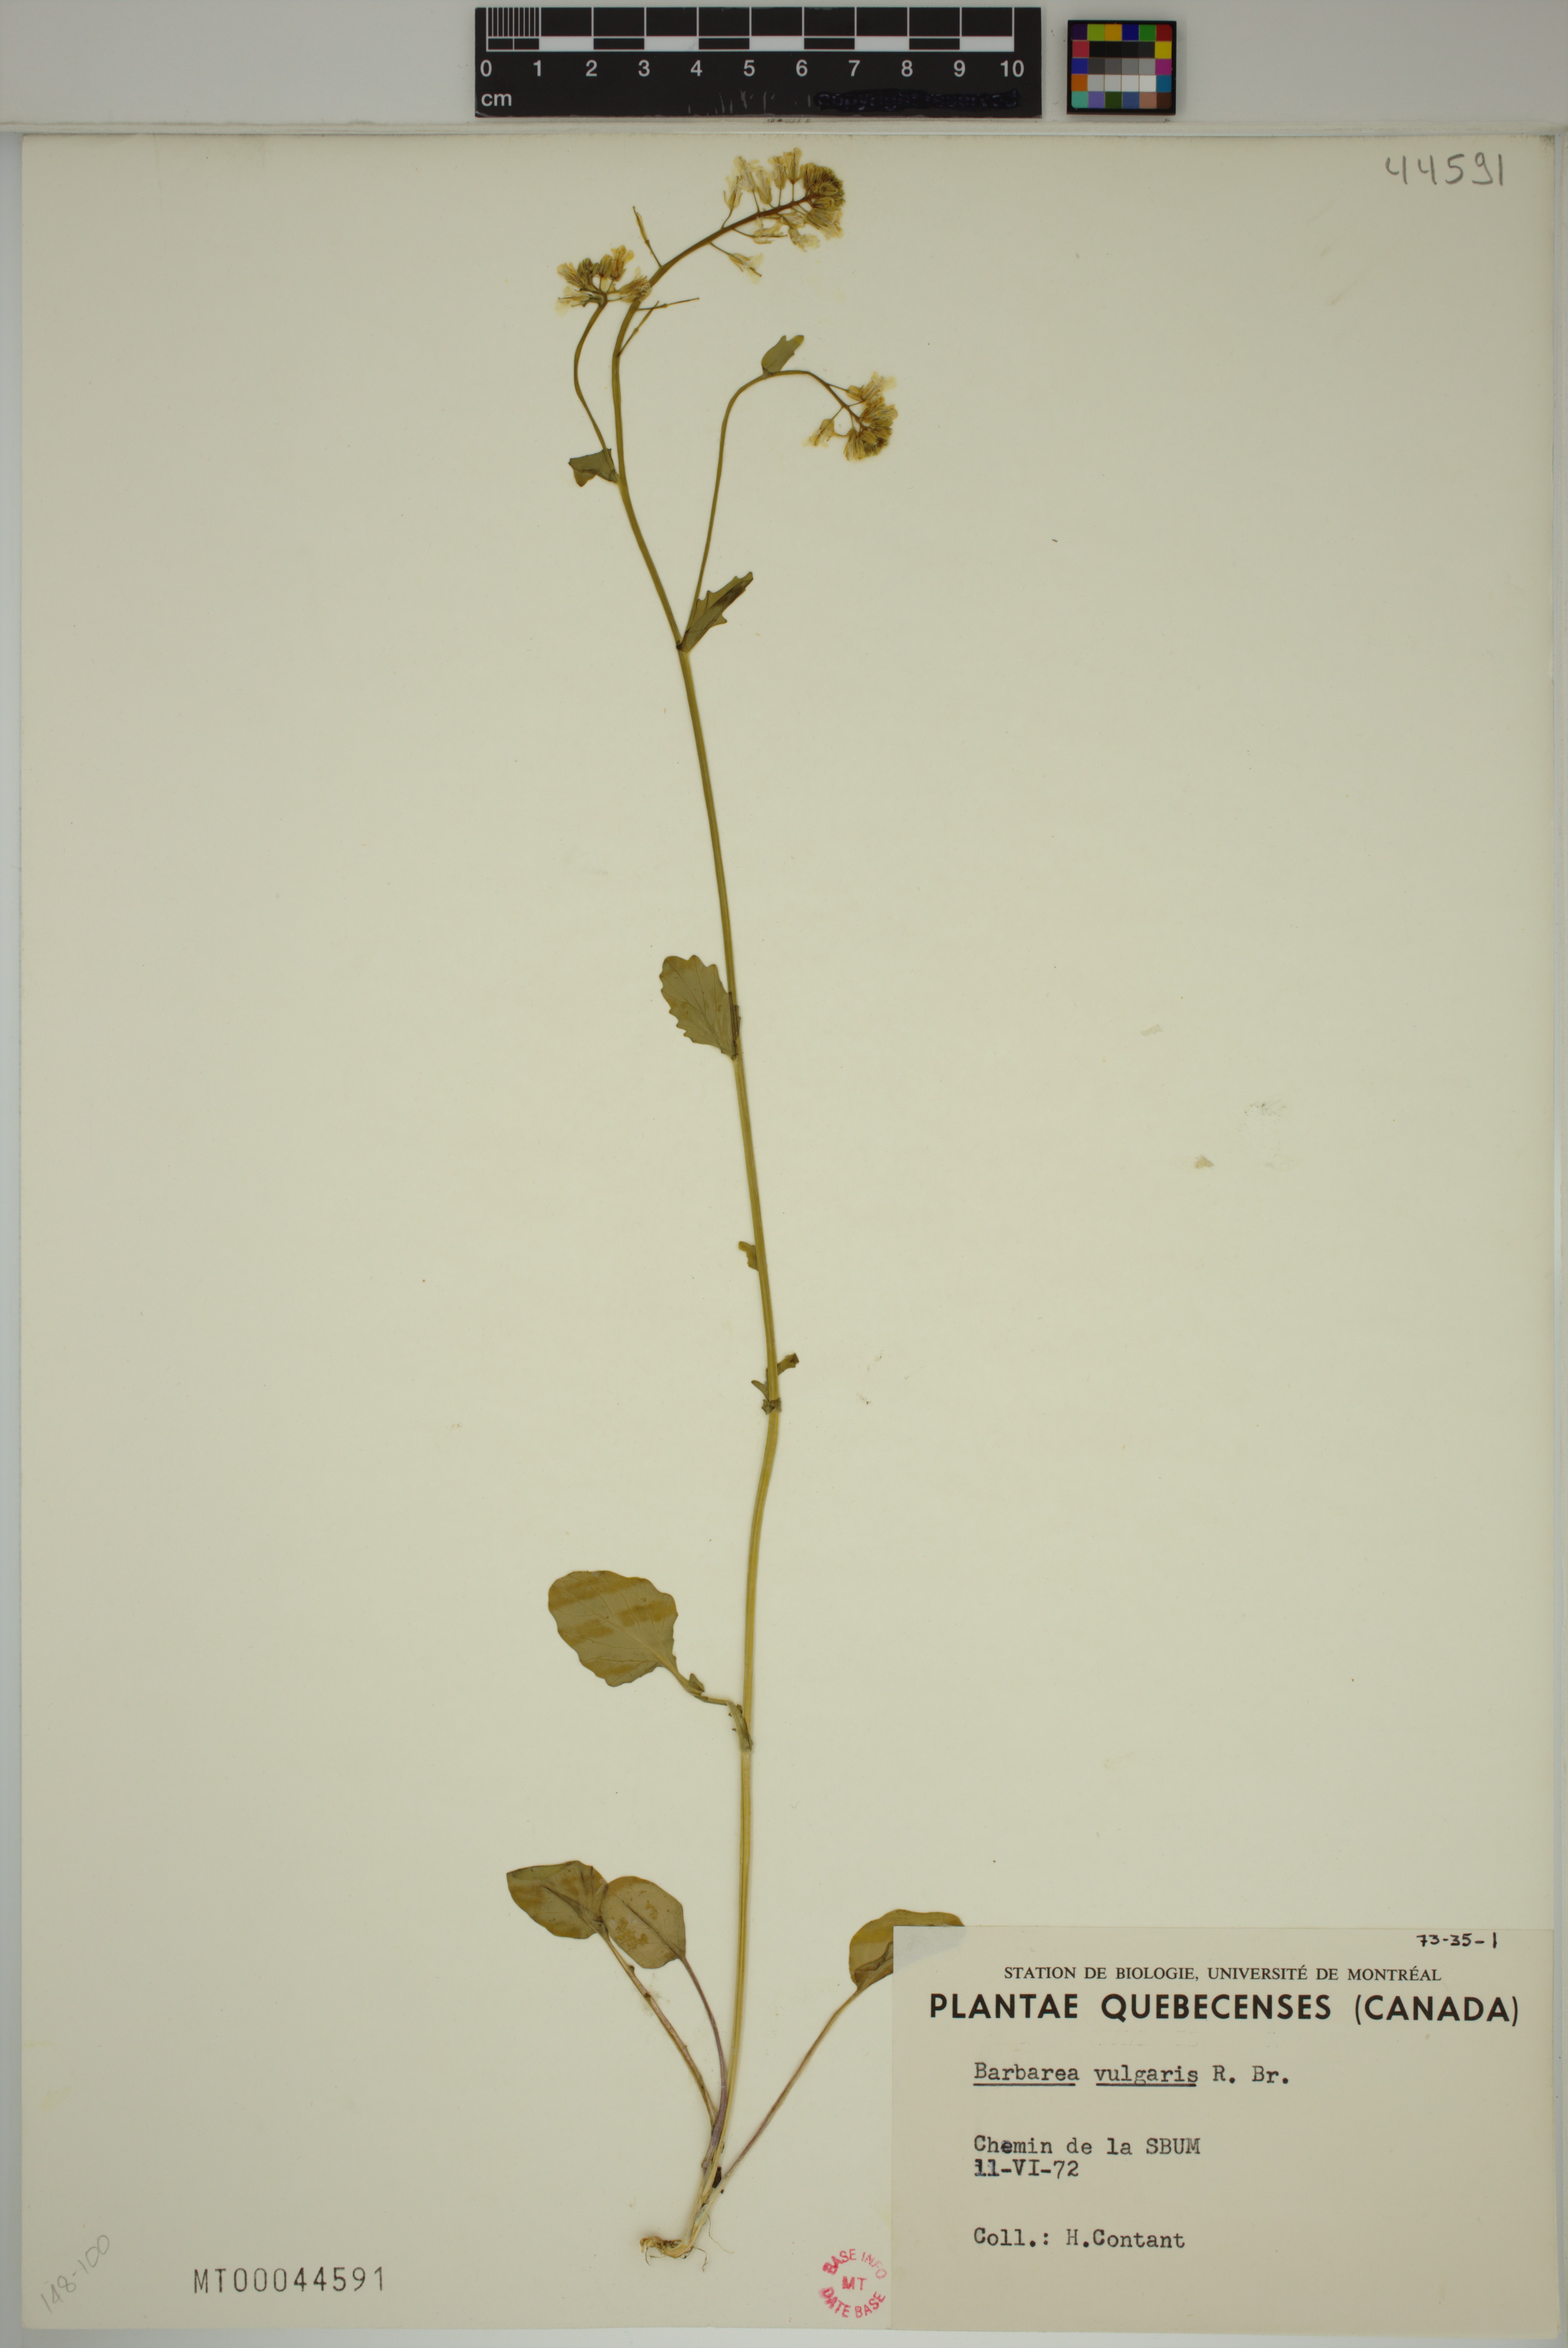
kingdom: Plantae
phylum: Tracheophyta
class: Magnoliopsida
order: Brassicales
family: Brassicaceae
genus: Barbarea
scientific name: Barbarea vulgaris
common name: Cressy-greens
